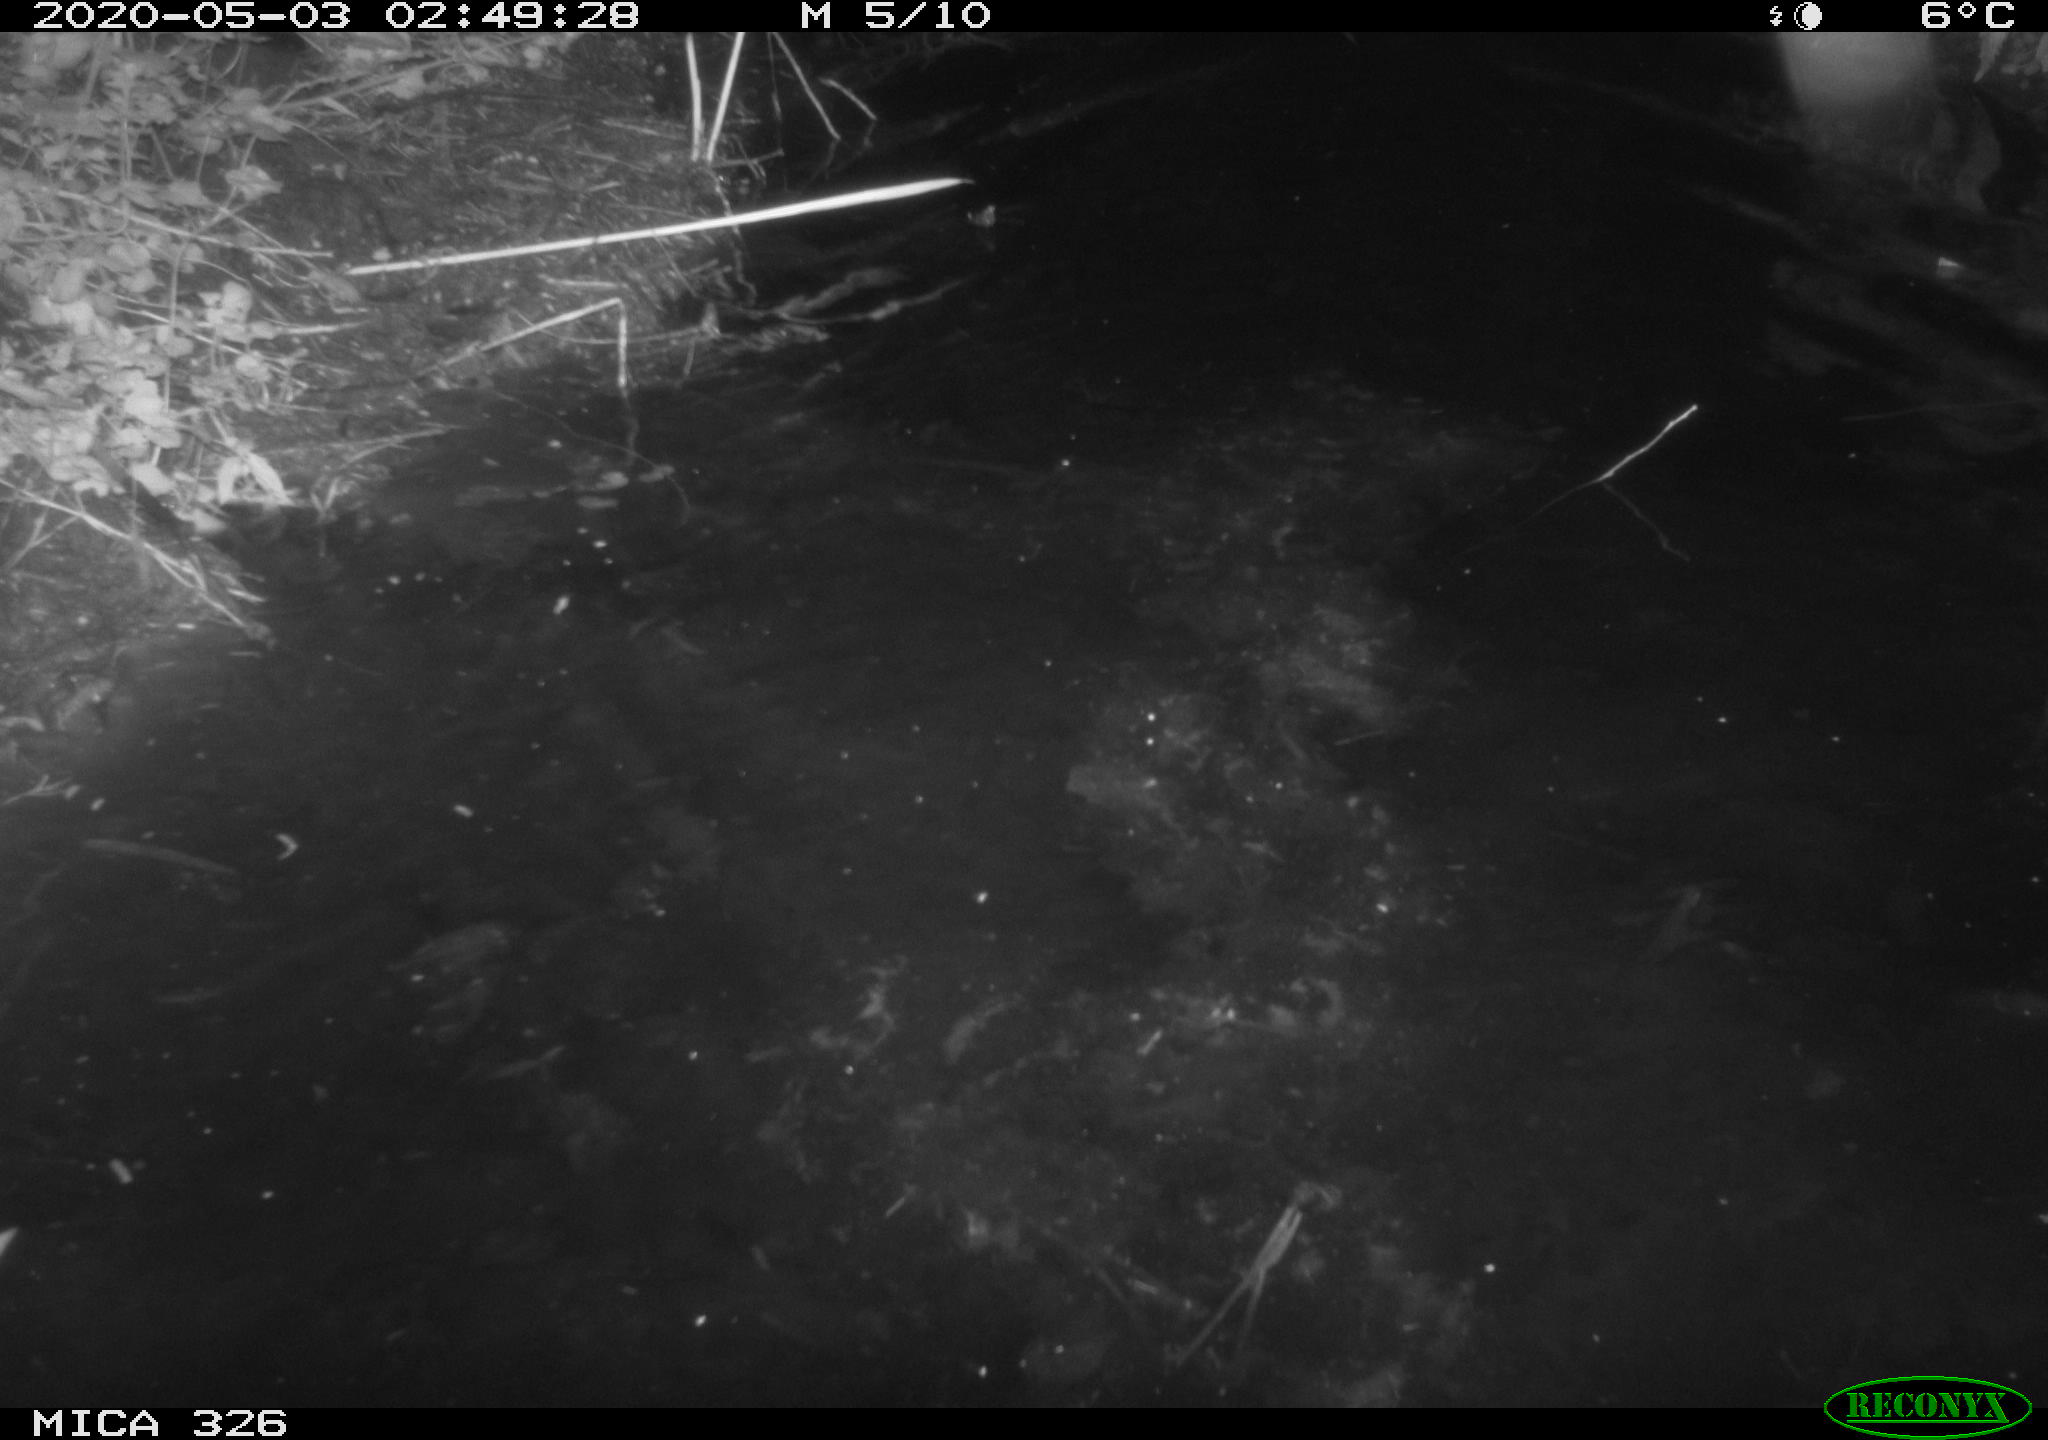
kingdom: Animalia
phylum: Chordata
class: Mammalia
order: Rodentia
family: Cricetidae
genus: Ondatra
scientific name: Ondatra zibethicus
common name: Muskrat
